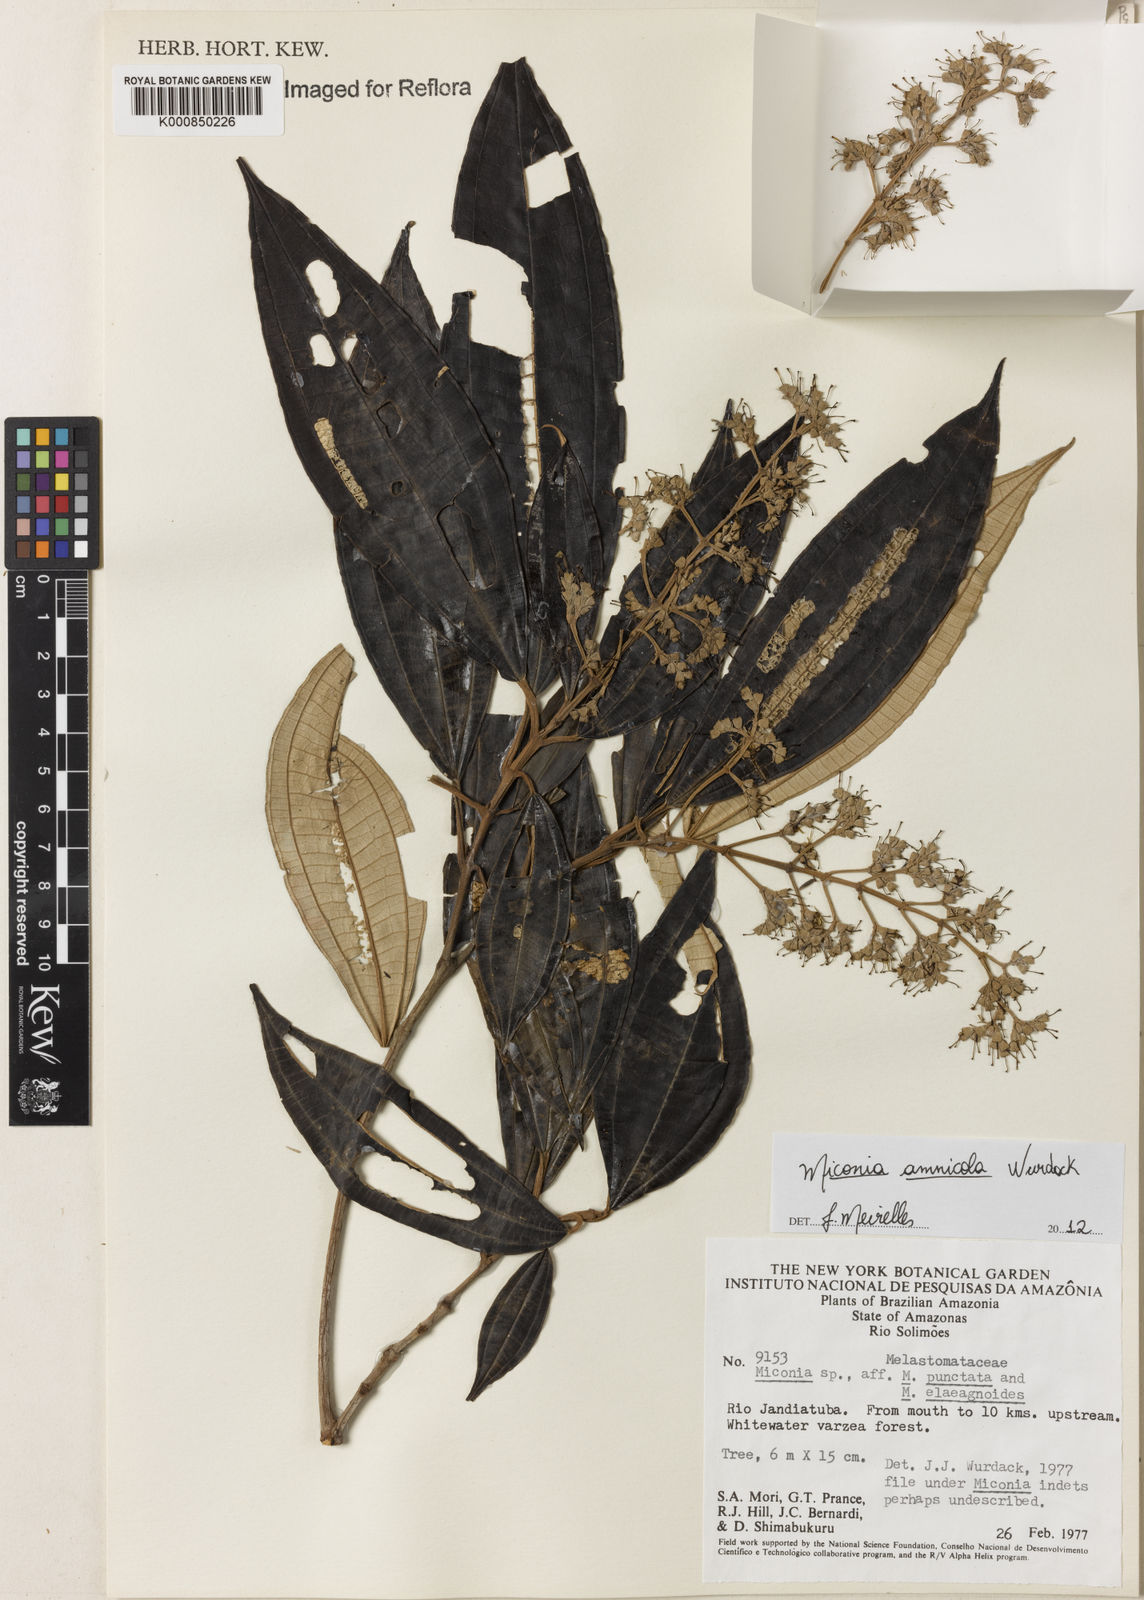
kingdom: Plantae
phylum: Tracheophyta
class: Magnoliopsida
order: Myrtales
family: Melastomataceae
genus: Miconia
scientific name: Miconia amnicola
